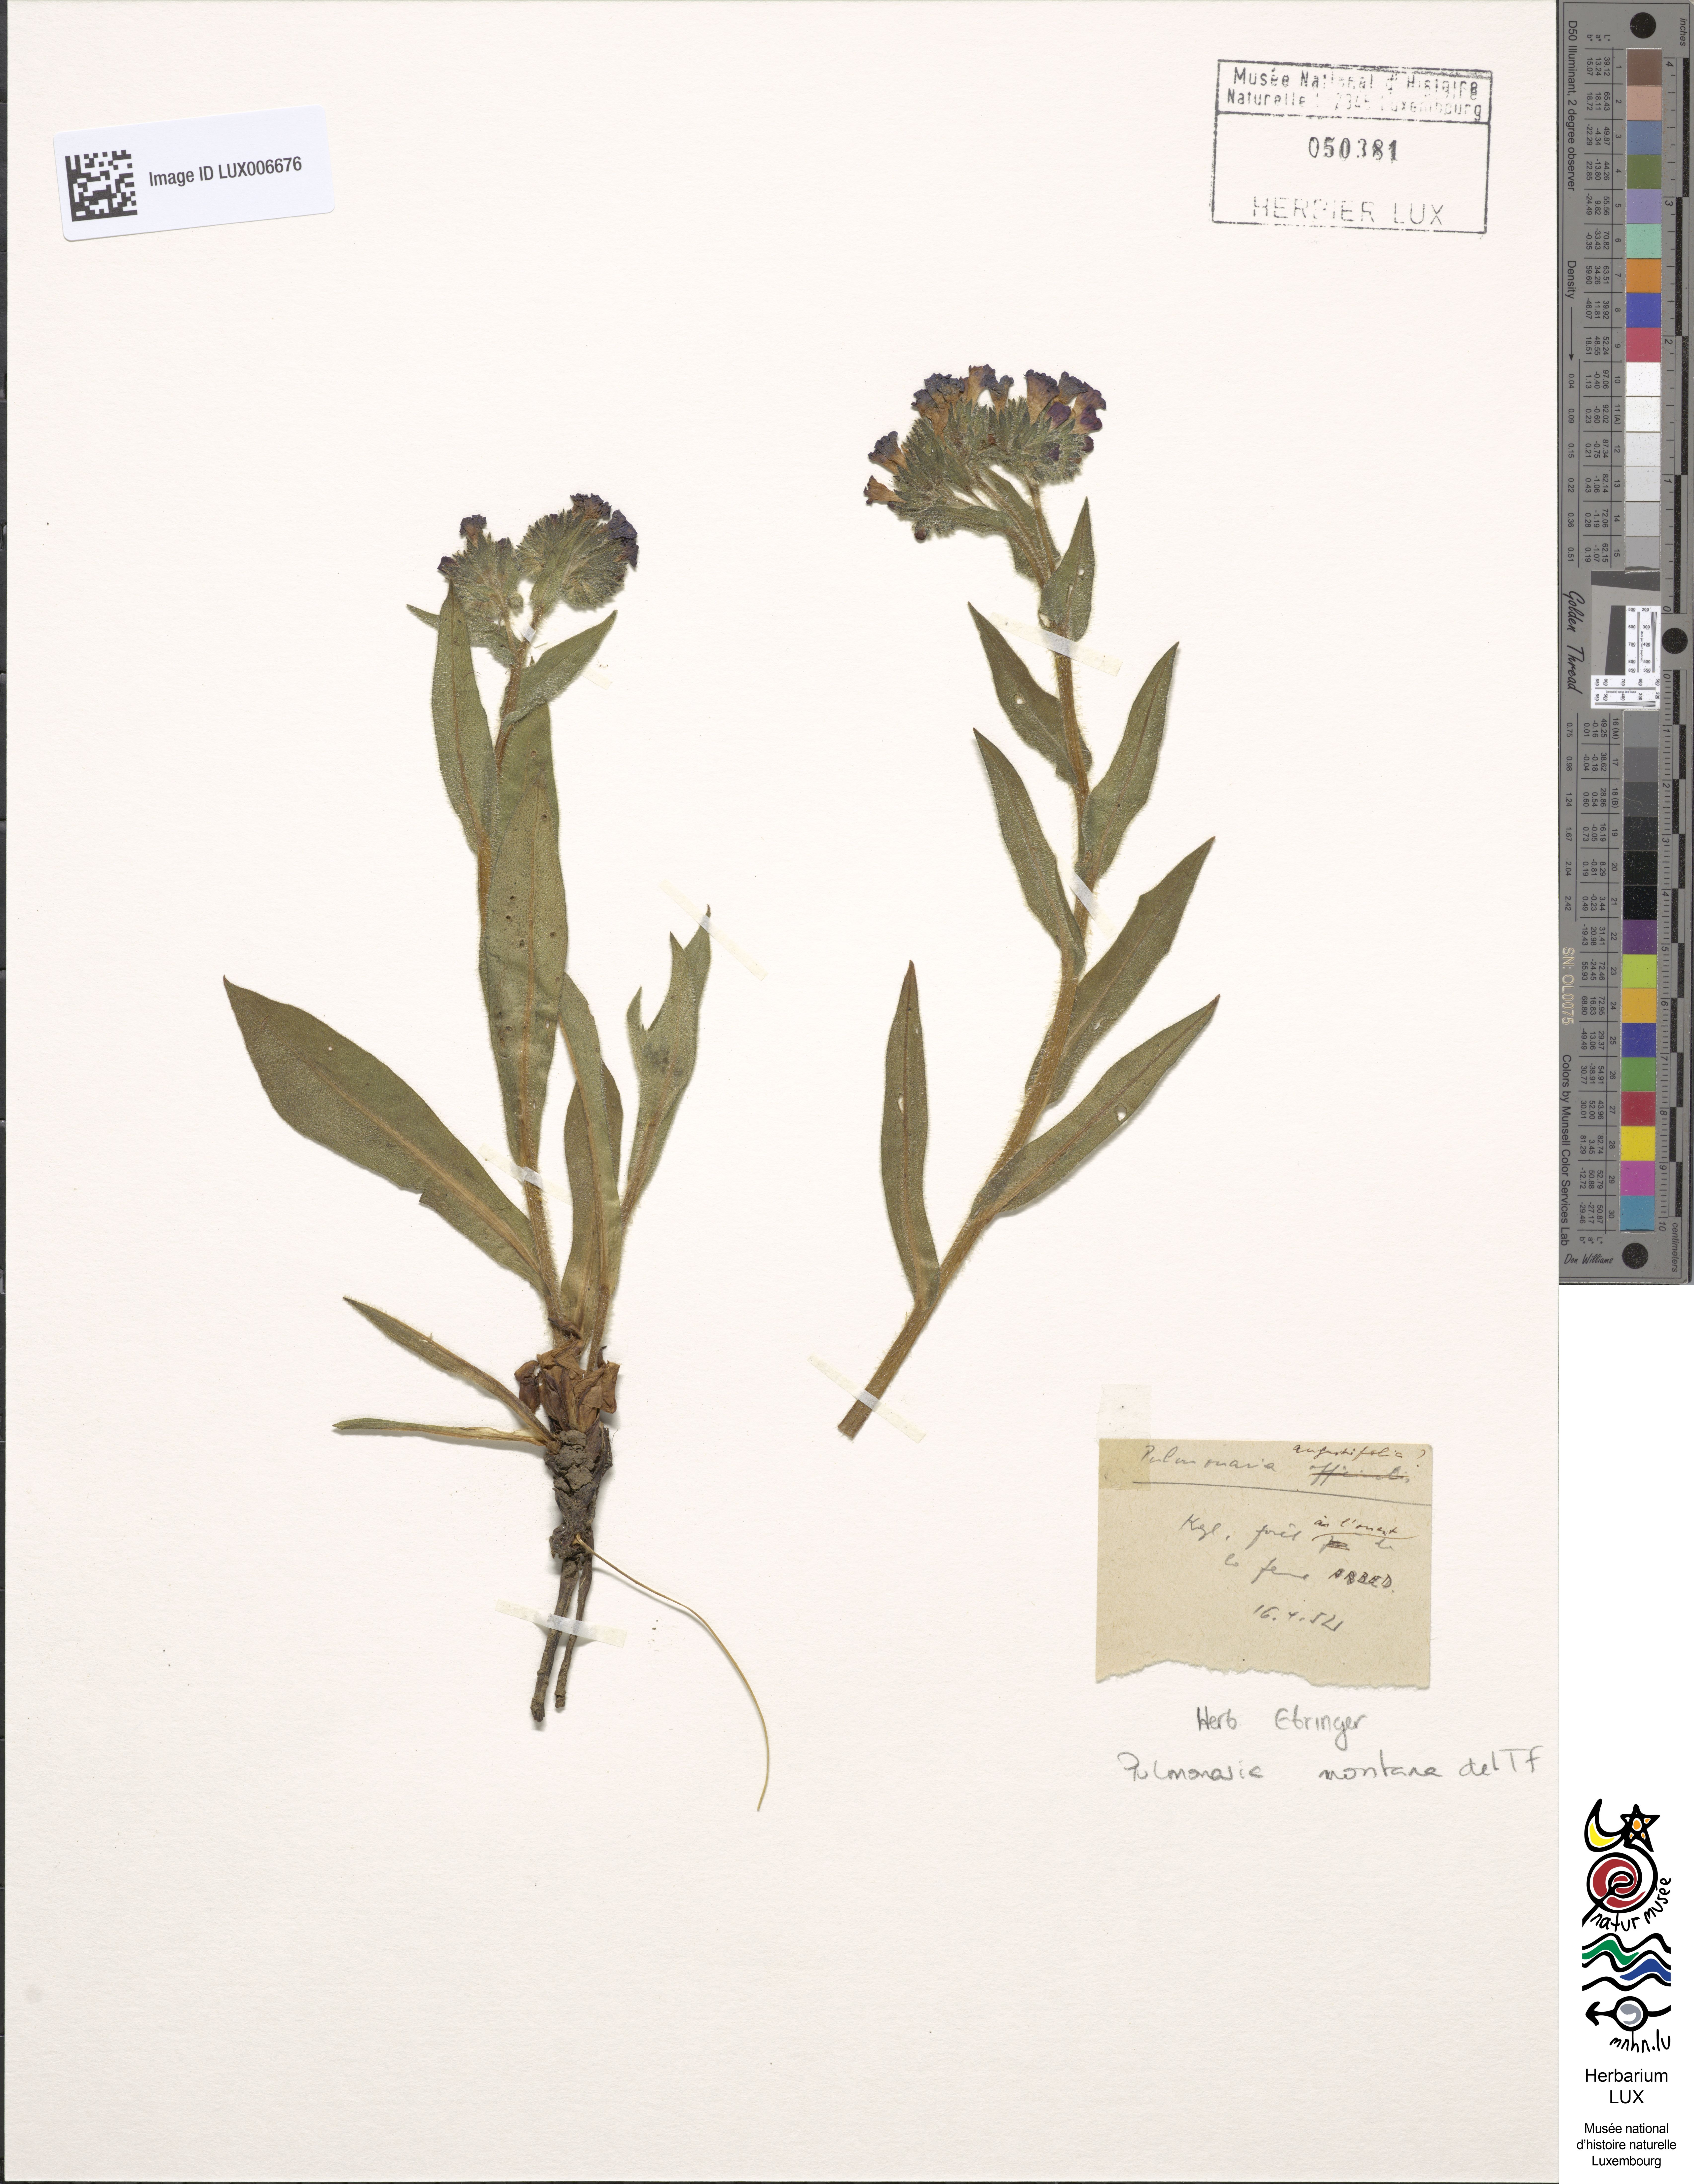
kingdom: Plantae
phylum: Tracheophyta
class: Magnoliopsida
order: Boraginales
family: Boraginaceae
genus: Pulmonaria
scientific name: Pulmonaria montana
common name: Mountain lungwort
